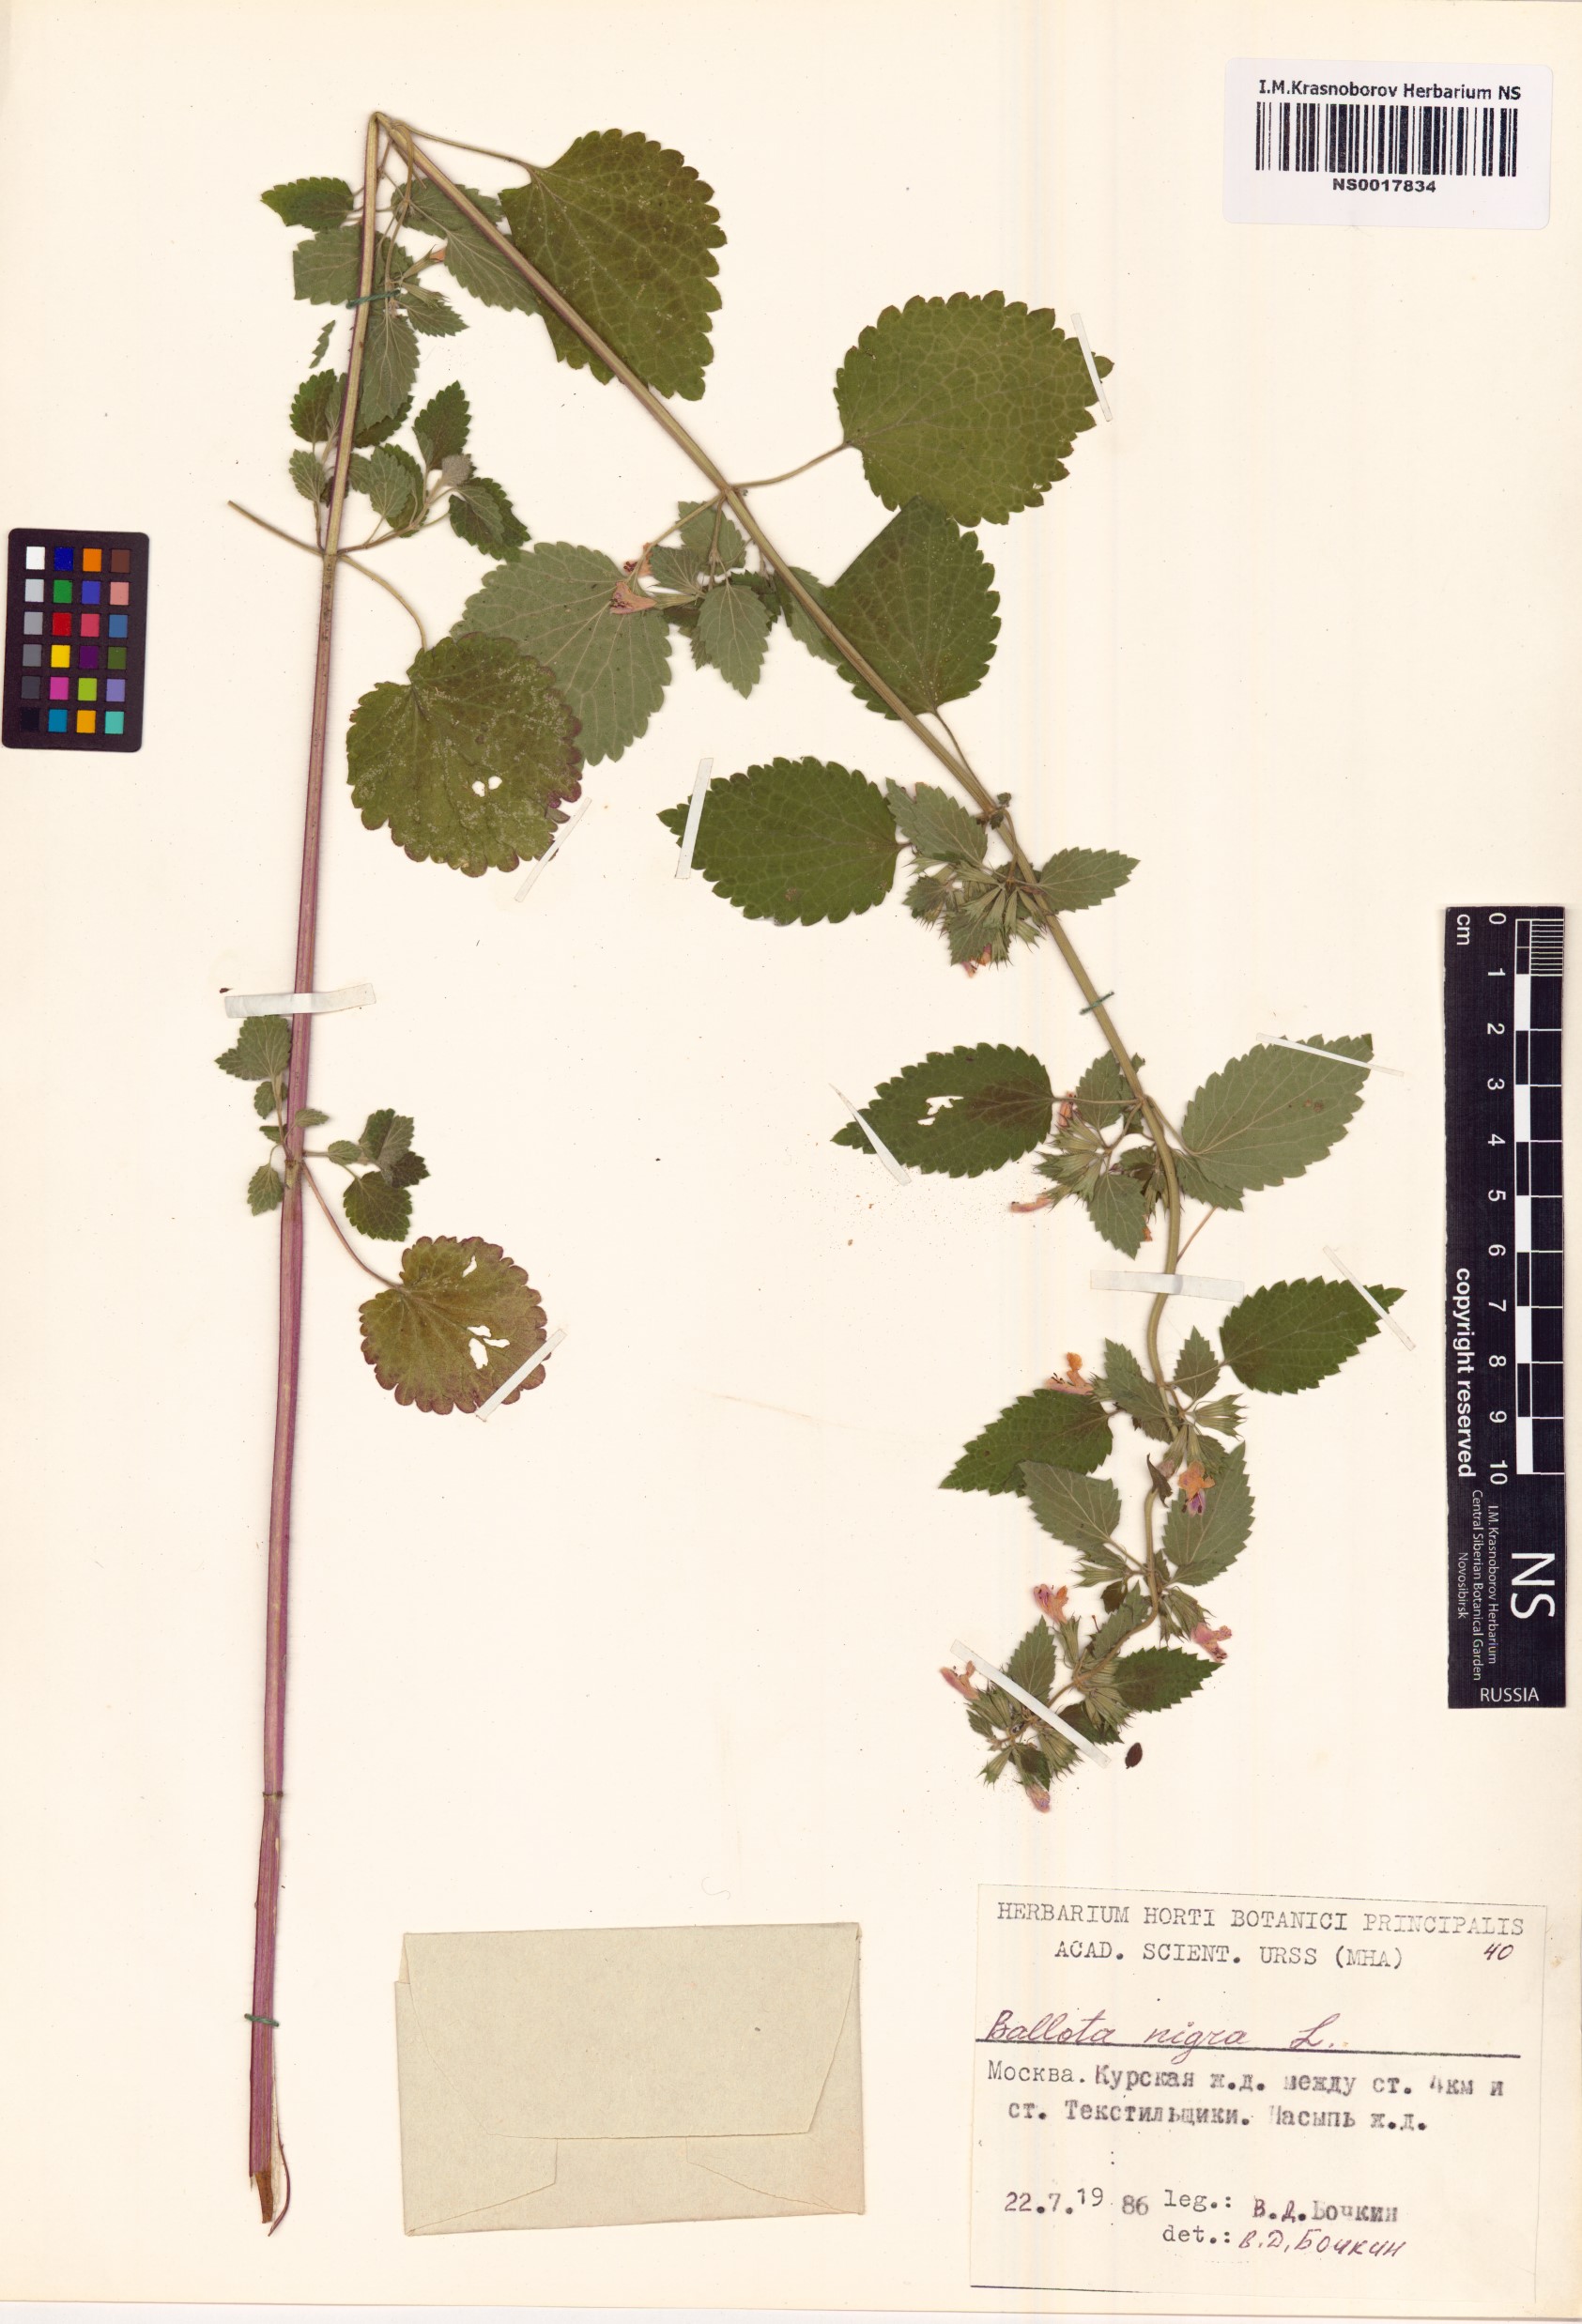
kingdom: Plantae
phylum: Tracheophyta
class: Magnoliopsida
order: Lamiales
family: Lamiaceae
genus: Ballota
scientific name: Ballota nigra
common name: Black horehound
